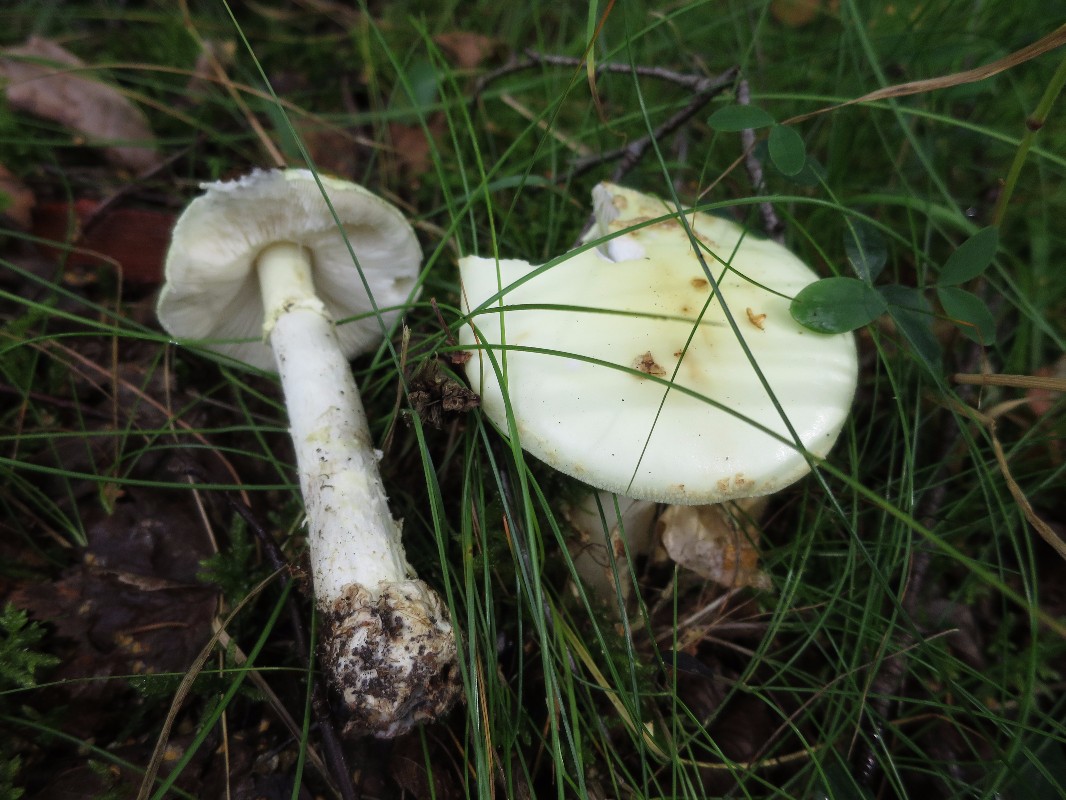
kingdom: Fungi
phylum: Basidiomycota
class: Agaricomycetes
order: Agaricales
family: Amanitaceae
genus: Amanita
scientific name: Amanita citrina
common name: kugleknoldet fluesvamp
